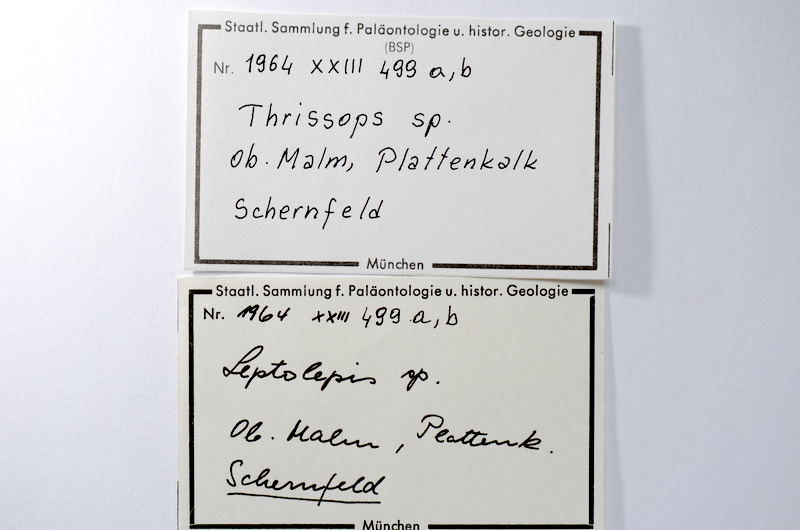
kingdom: Animalia
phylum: Chordata
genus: Thrissops
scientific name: Thrissops
